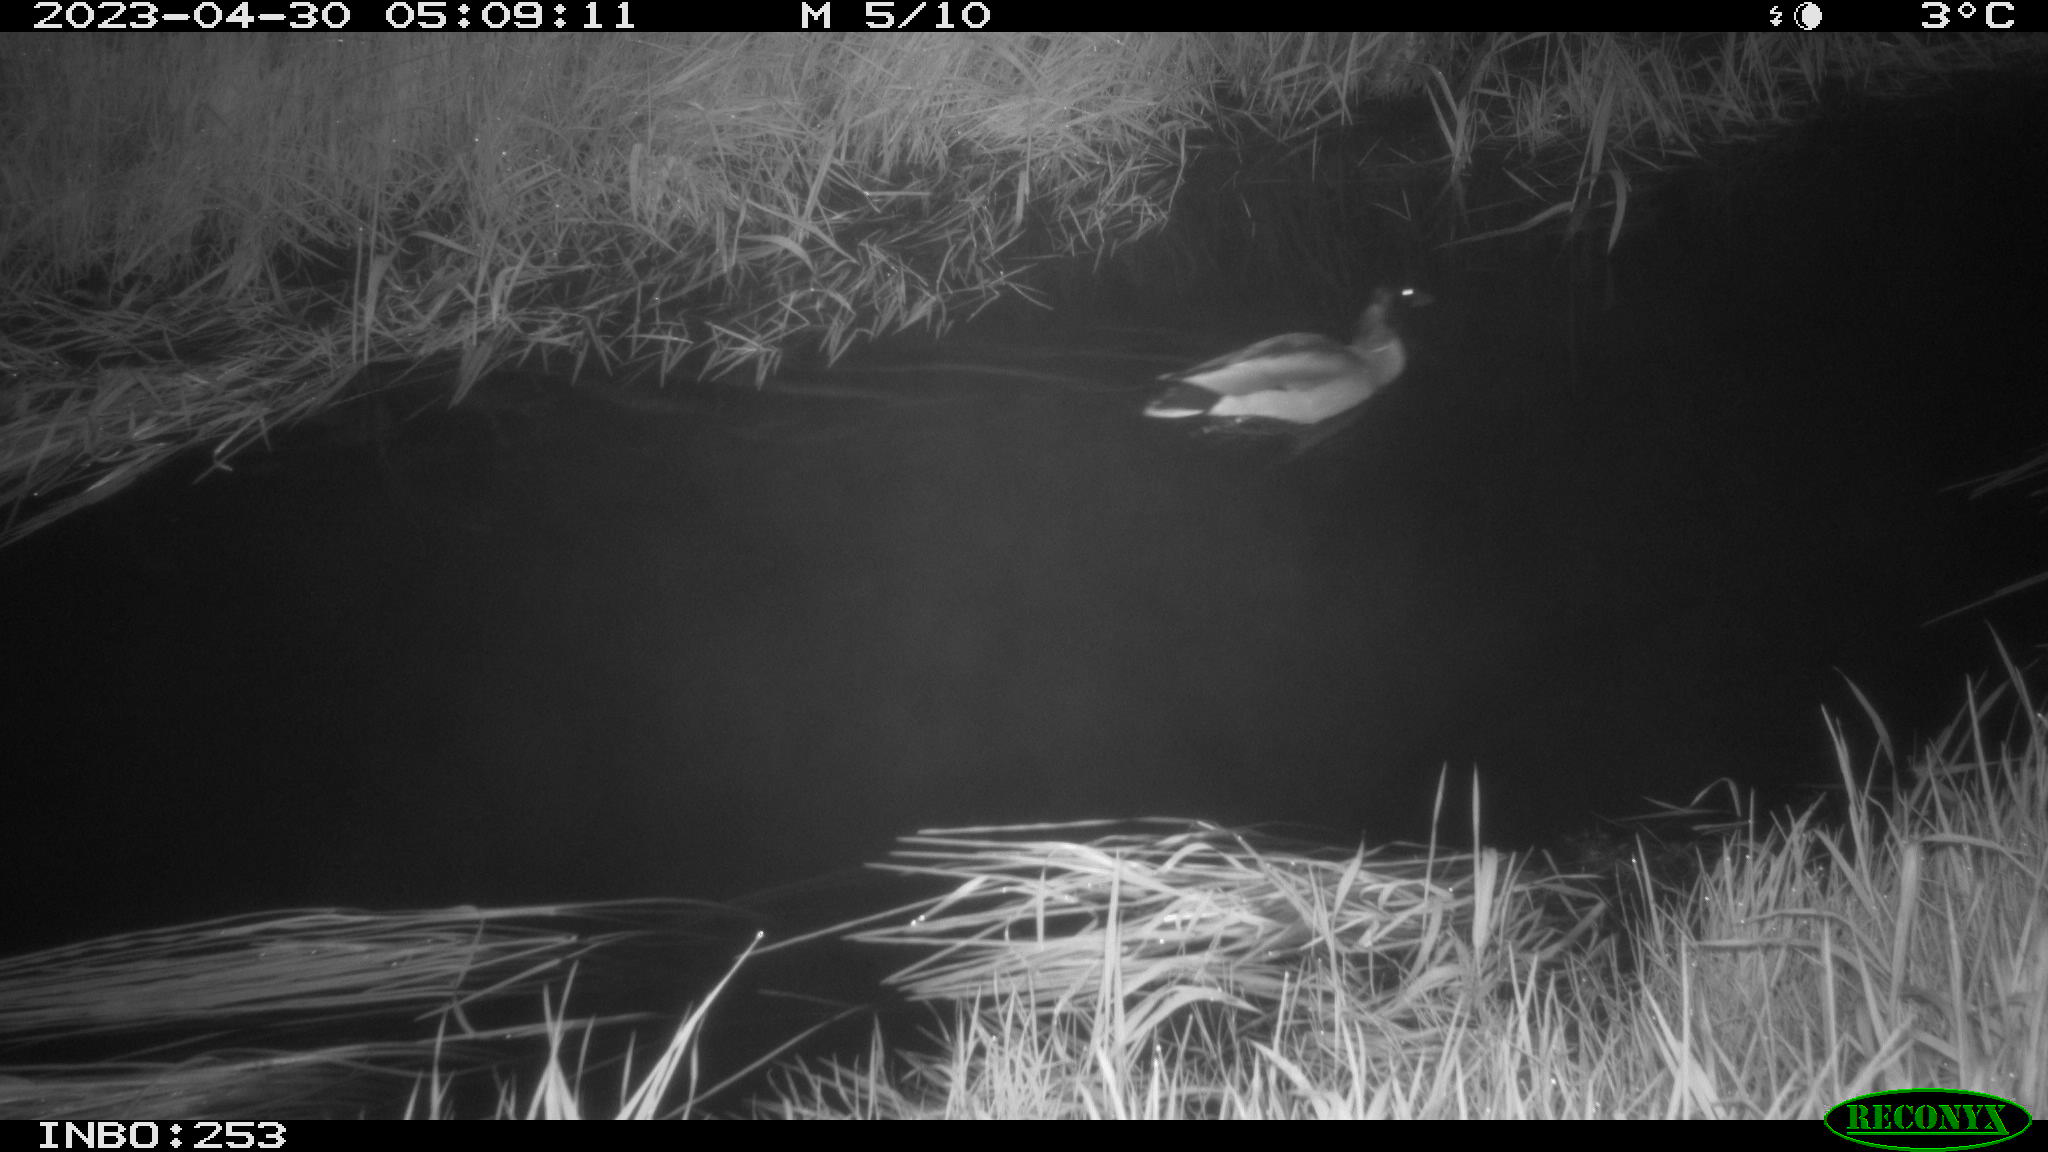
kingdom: Animalia
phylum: Chordata
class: Aves
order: Anseriformes
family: Anatidae
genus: Anas
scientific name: Anas
